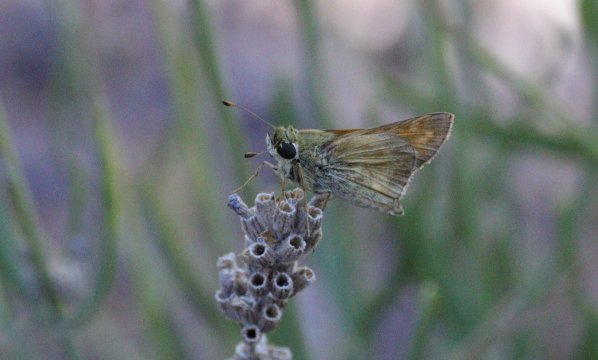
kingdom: Animalia
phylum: Arthropoda
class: Insecta
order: Lepidoptera
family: Hesperiidae
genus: Piruna
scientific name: Piruna pirus
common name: Russet Skipperling
